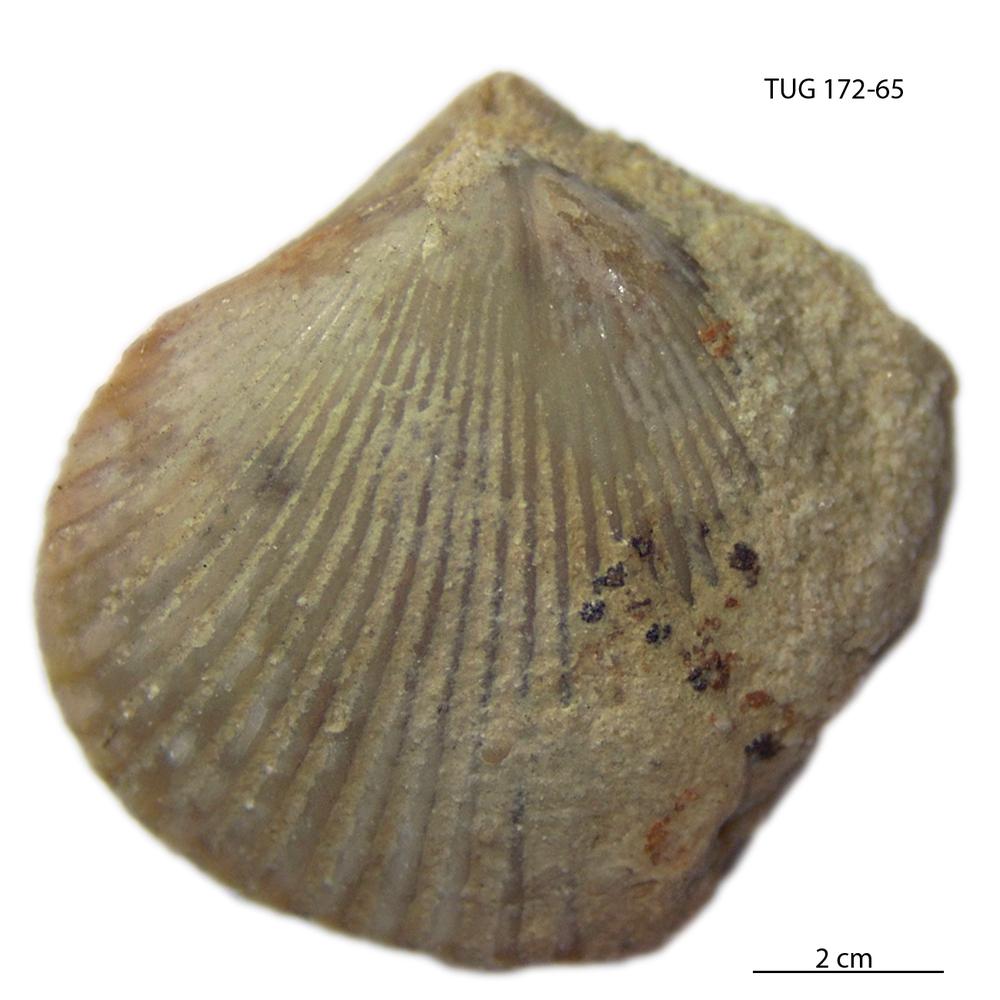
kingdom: Animalia
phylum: Brachiopoda
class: Rhynchonellata
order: Terebratulida
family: Terebratulidae
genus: Terebratula
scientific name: Terebratula livonica
